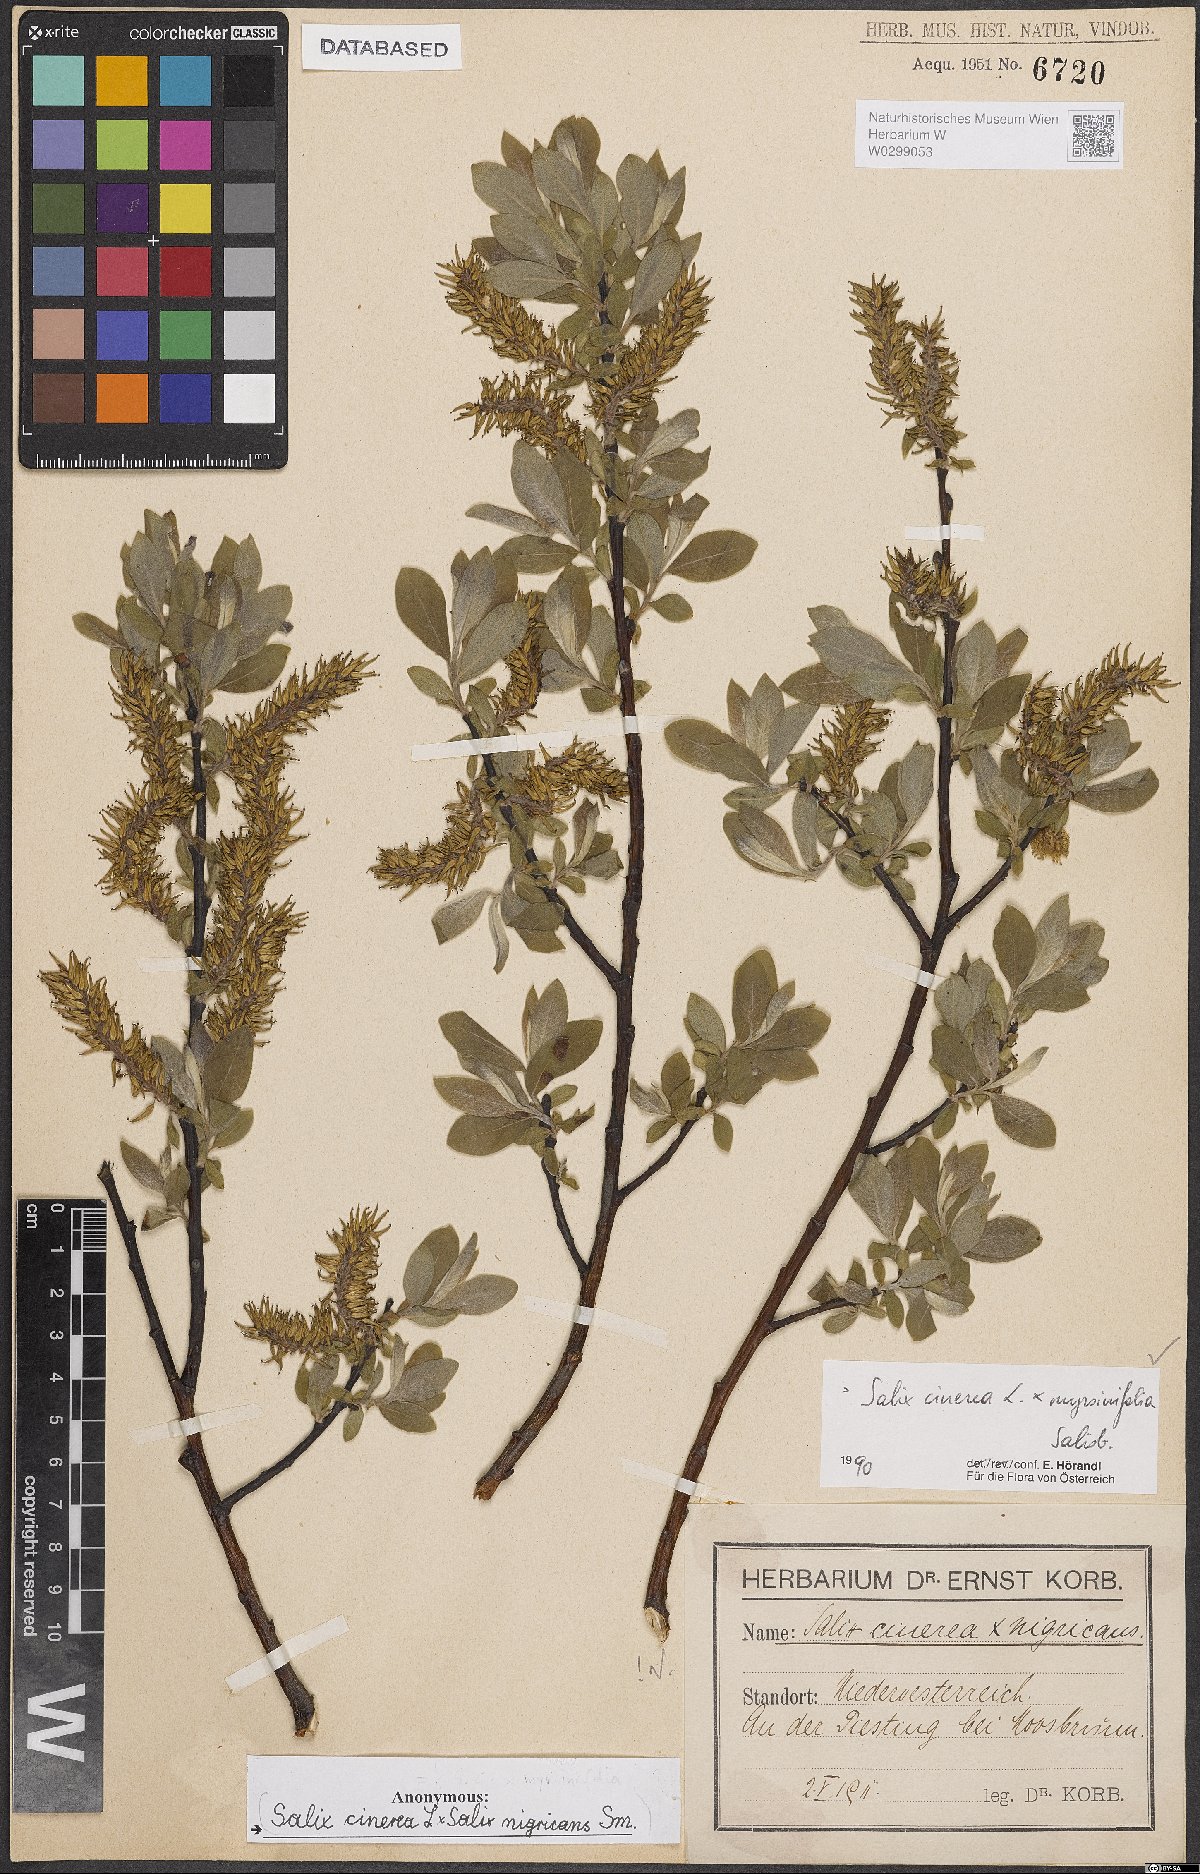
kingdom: Plantae
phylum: Tracheophyta
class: Magnoliopsida
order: Malpighiales
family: Salicaceae
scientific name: Salicaceae
